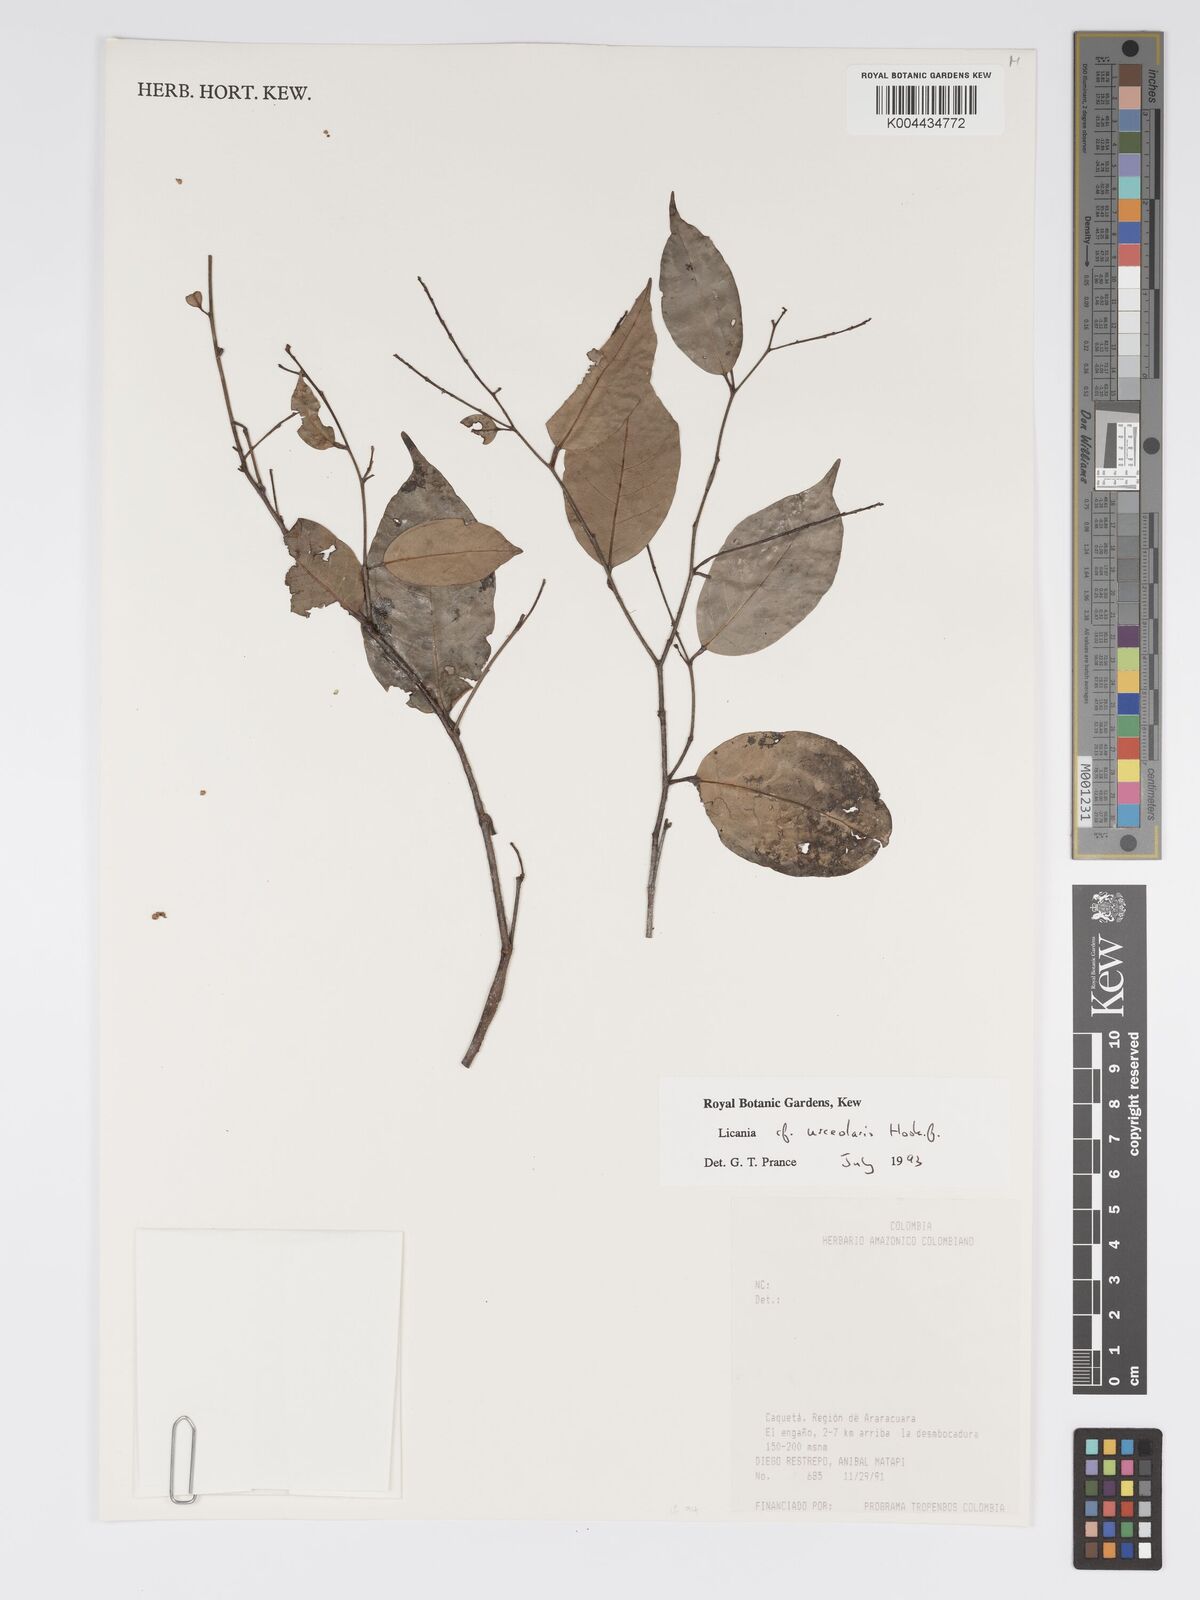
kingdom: Plantae
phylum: Tracheophyta
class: Magnoliopsida
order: Malpighiales
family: Chrysobalanaceae
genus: Licania
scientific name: Licania urceolaris
